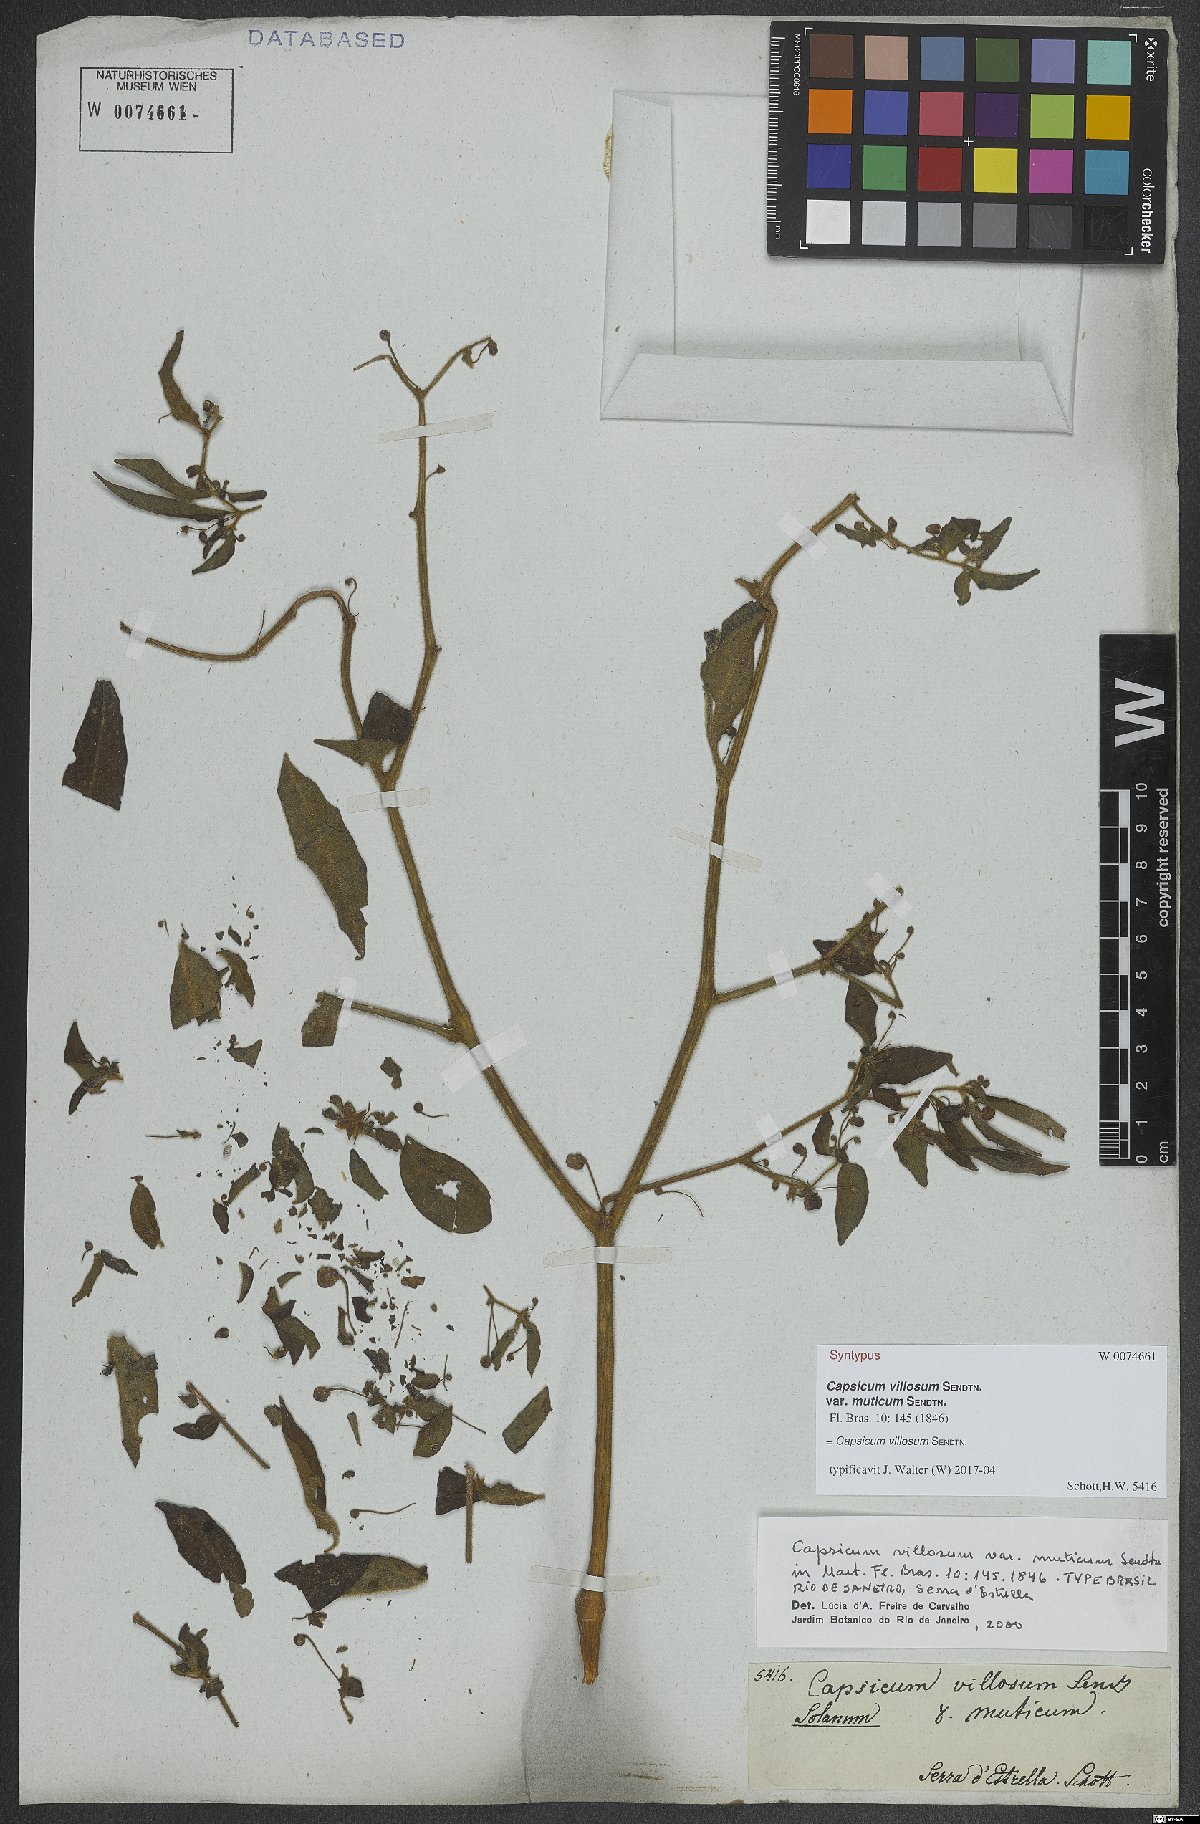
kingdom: Plantae
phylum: Tracheophyta
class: Magnoliopsida
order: Solanales
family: Solanaceae
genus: Capsicum
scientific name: Capsicum villosum
